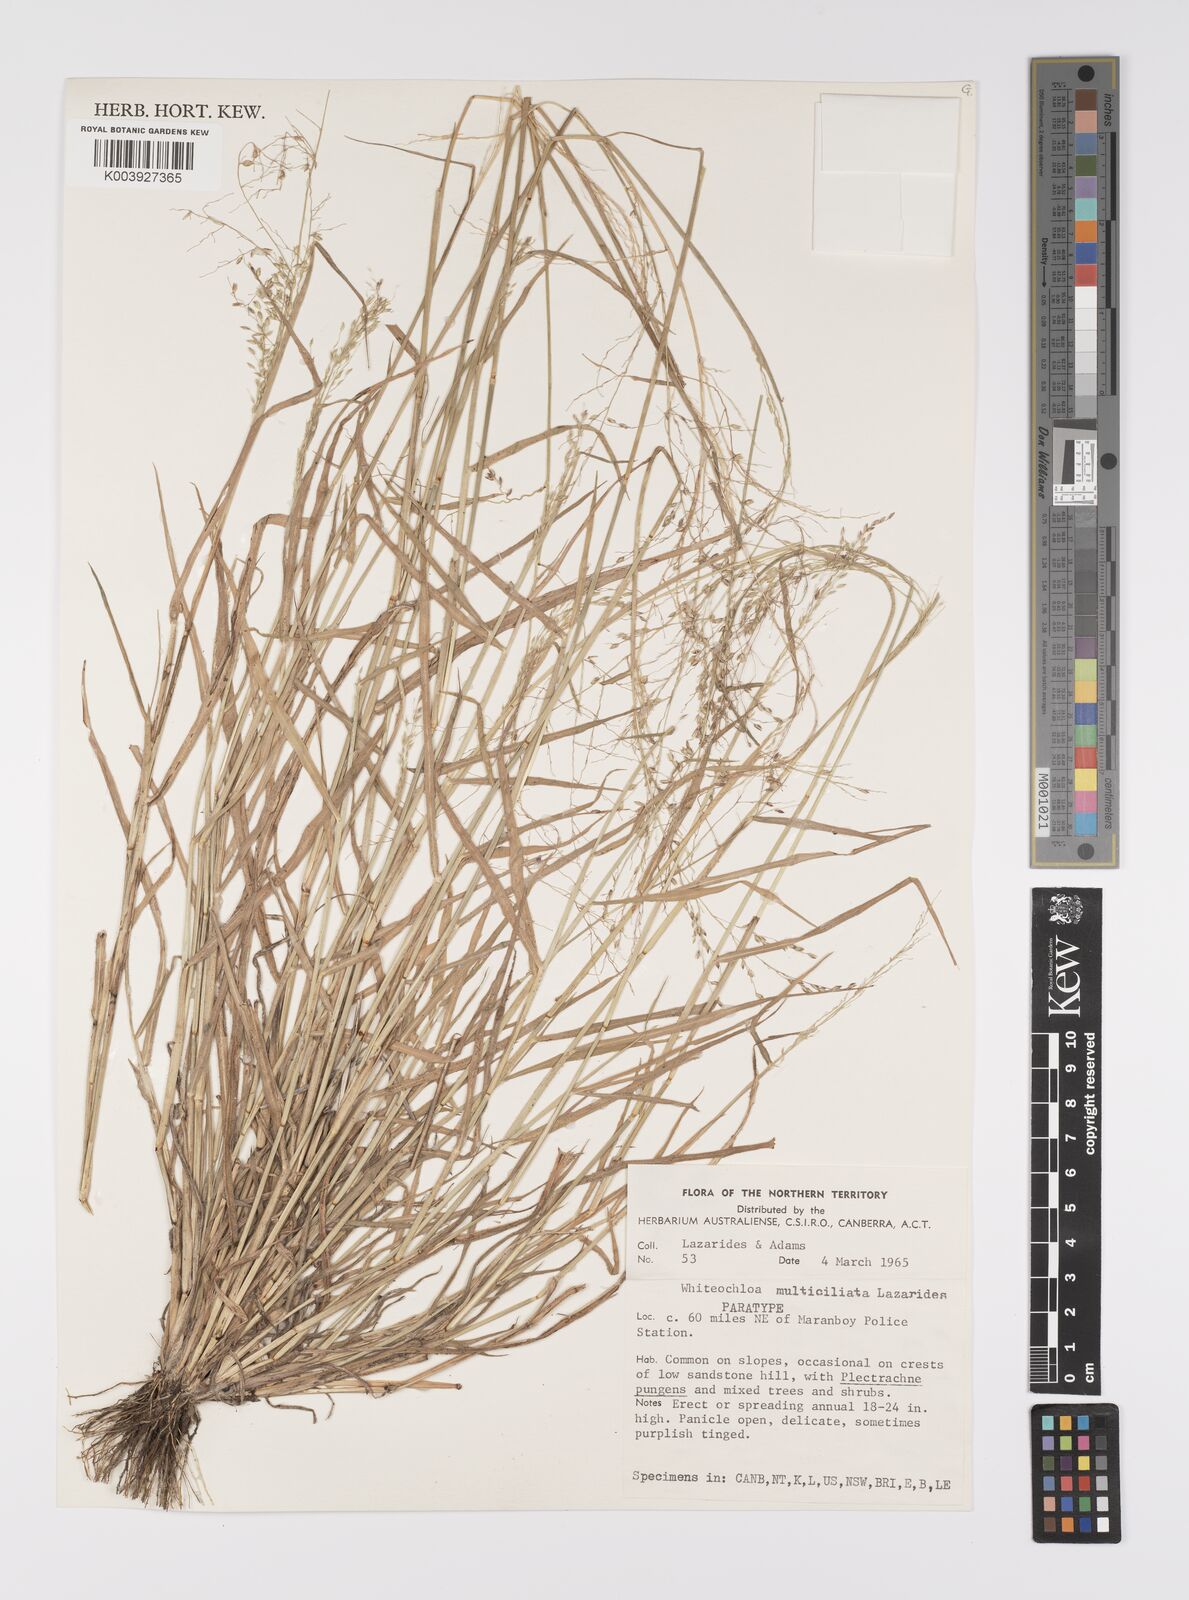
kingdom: Plantae
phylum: Tracheophyta
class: Liliopsida
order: Poales
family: Poaceae
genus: Whiteochloa
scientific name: Whiteochloa multiciliata
